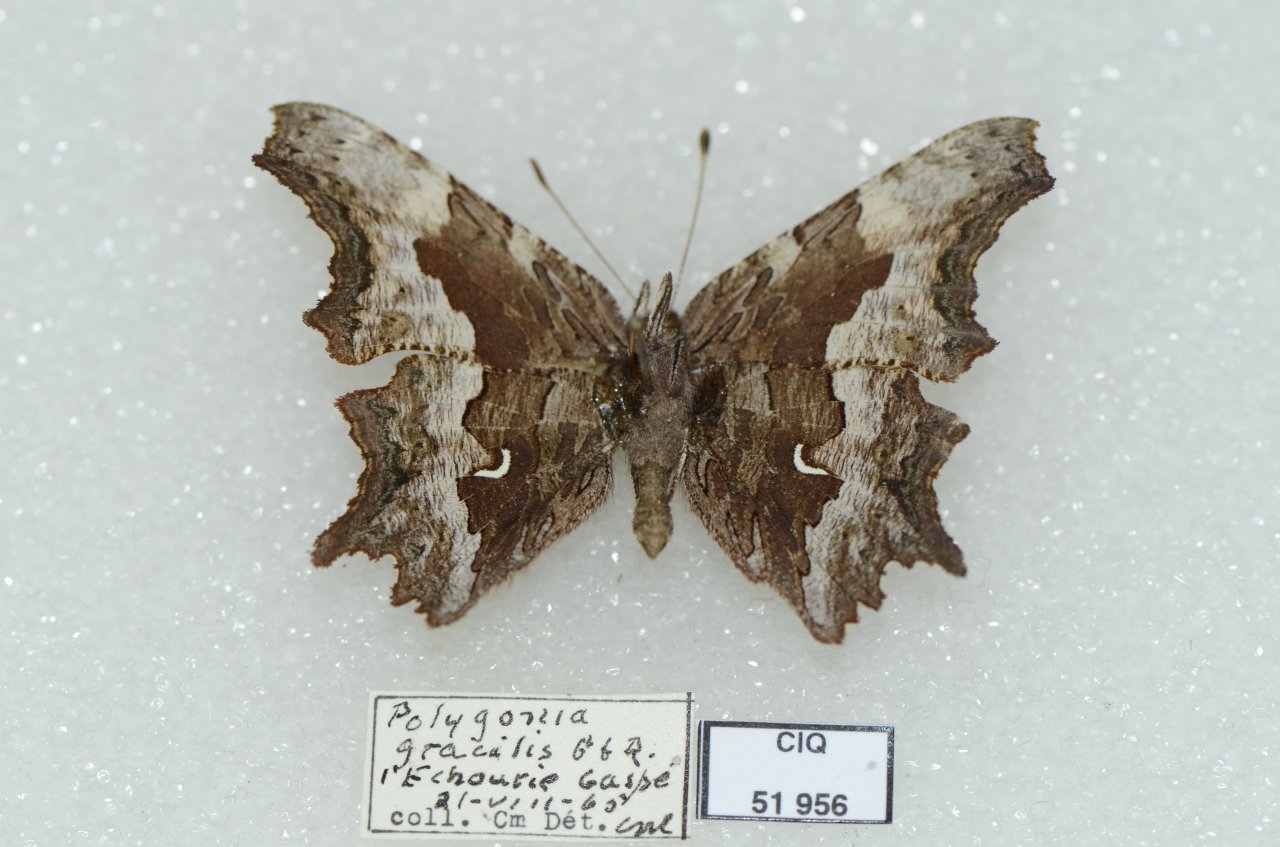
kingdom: Animalia
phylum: Arthropoda
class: Insecta
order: Lepidoptera
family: Nymphalidae
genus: Polygonia
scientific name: Polygonia gracilis
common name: Hoary Comma
